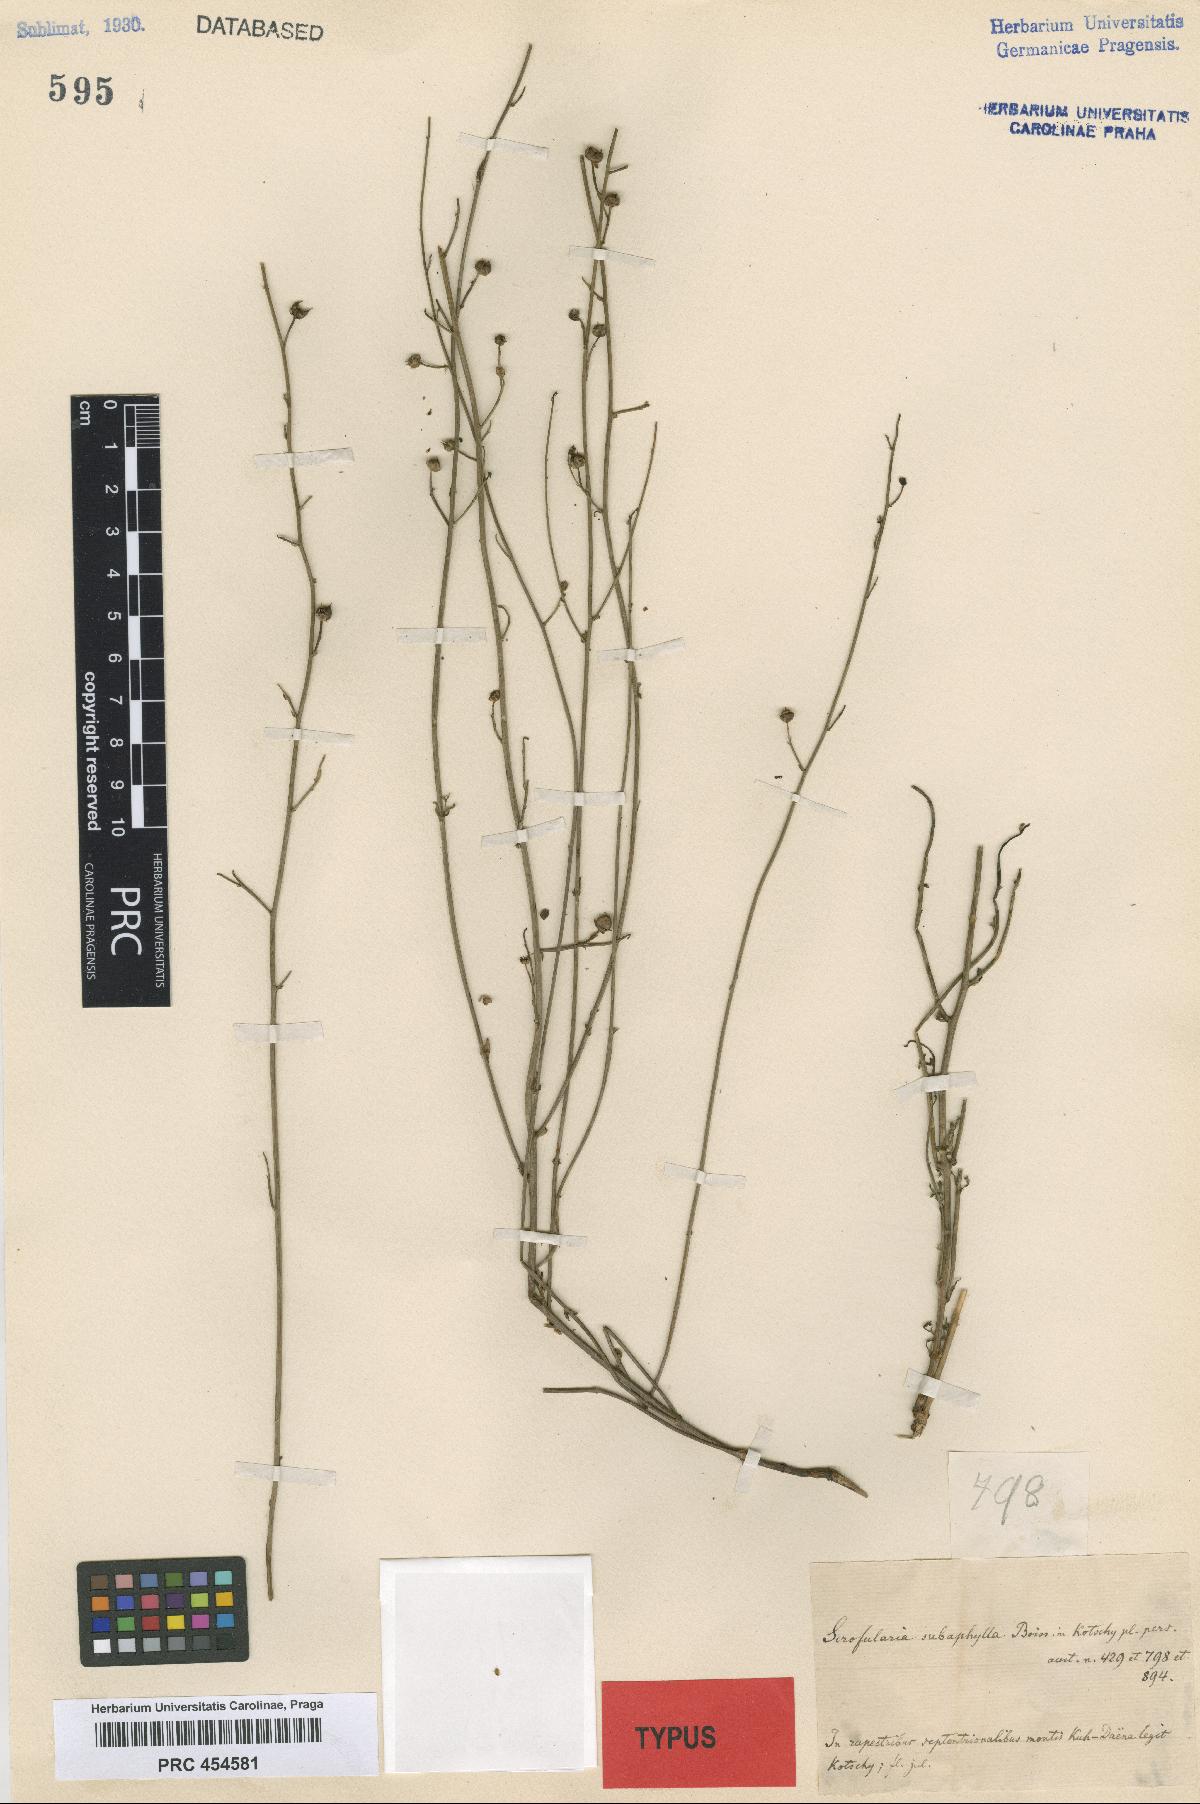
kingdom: Plantae
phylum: Tracheophyta
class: Magnoliopsida
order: Lamiales
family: Scrophulariaceae
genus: Scrophularia
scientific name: Scrophularia subaphylla
